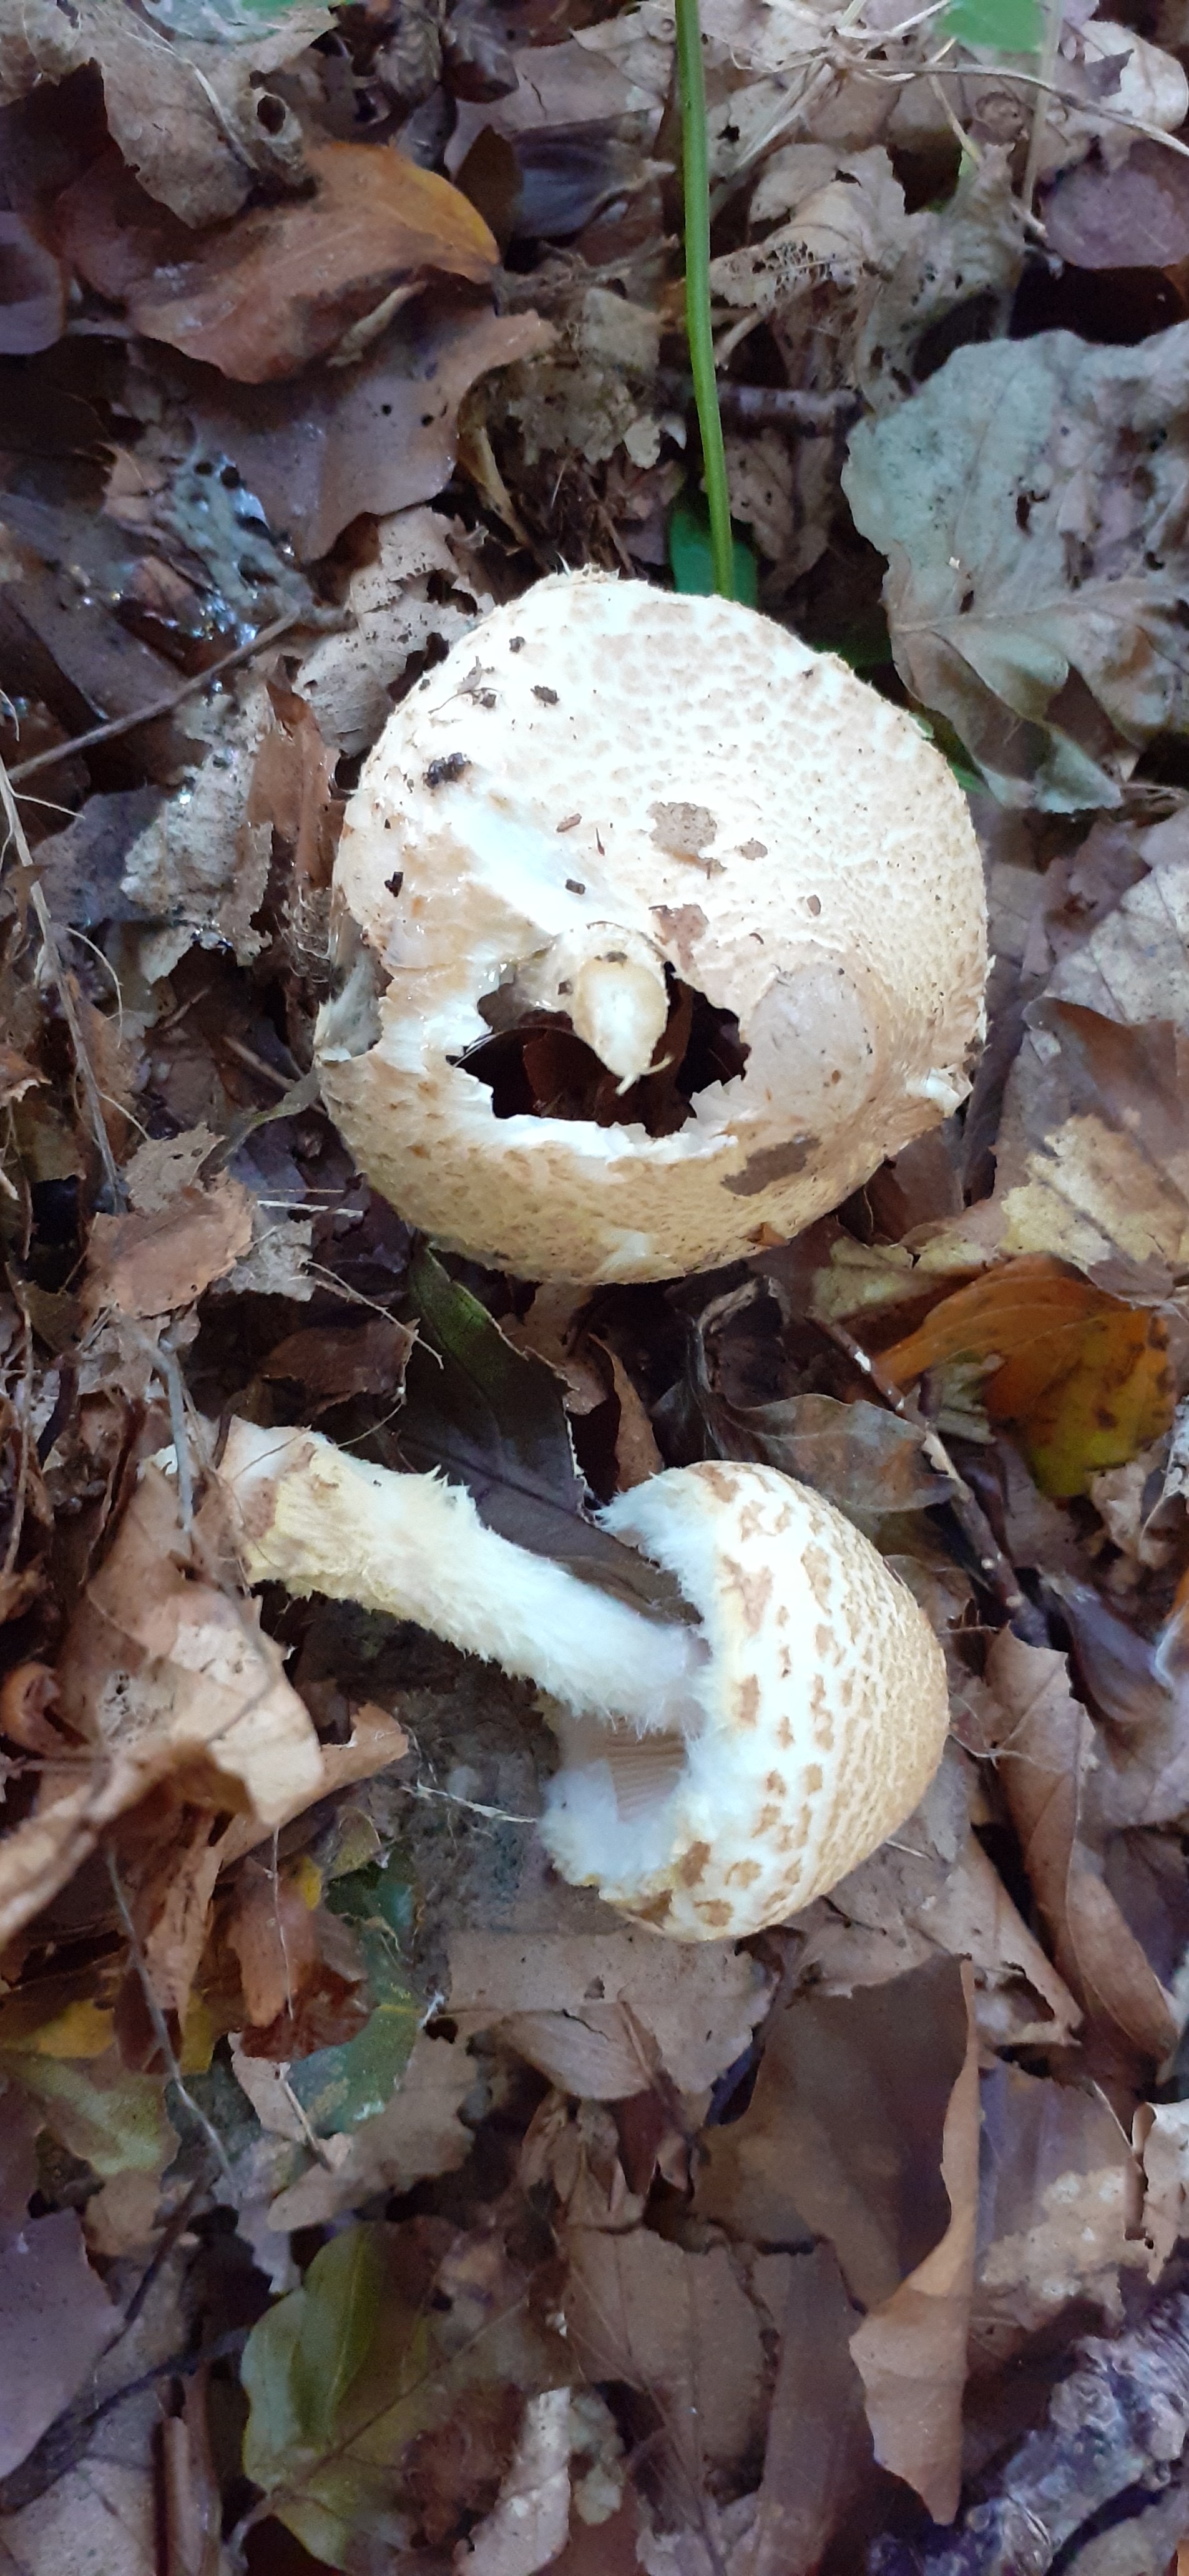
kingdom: Fungi
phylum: Basidiomycota
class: Agaricomycetes
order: Agaricales
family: Agaricaceae
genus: Lepiota
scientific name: Lepiota magnispora
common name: gulfnugget parasolhat
